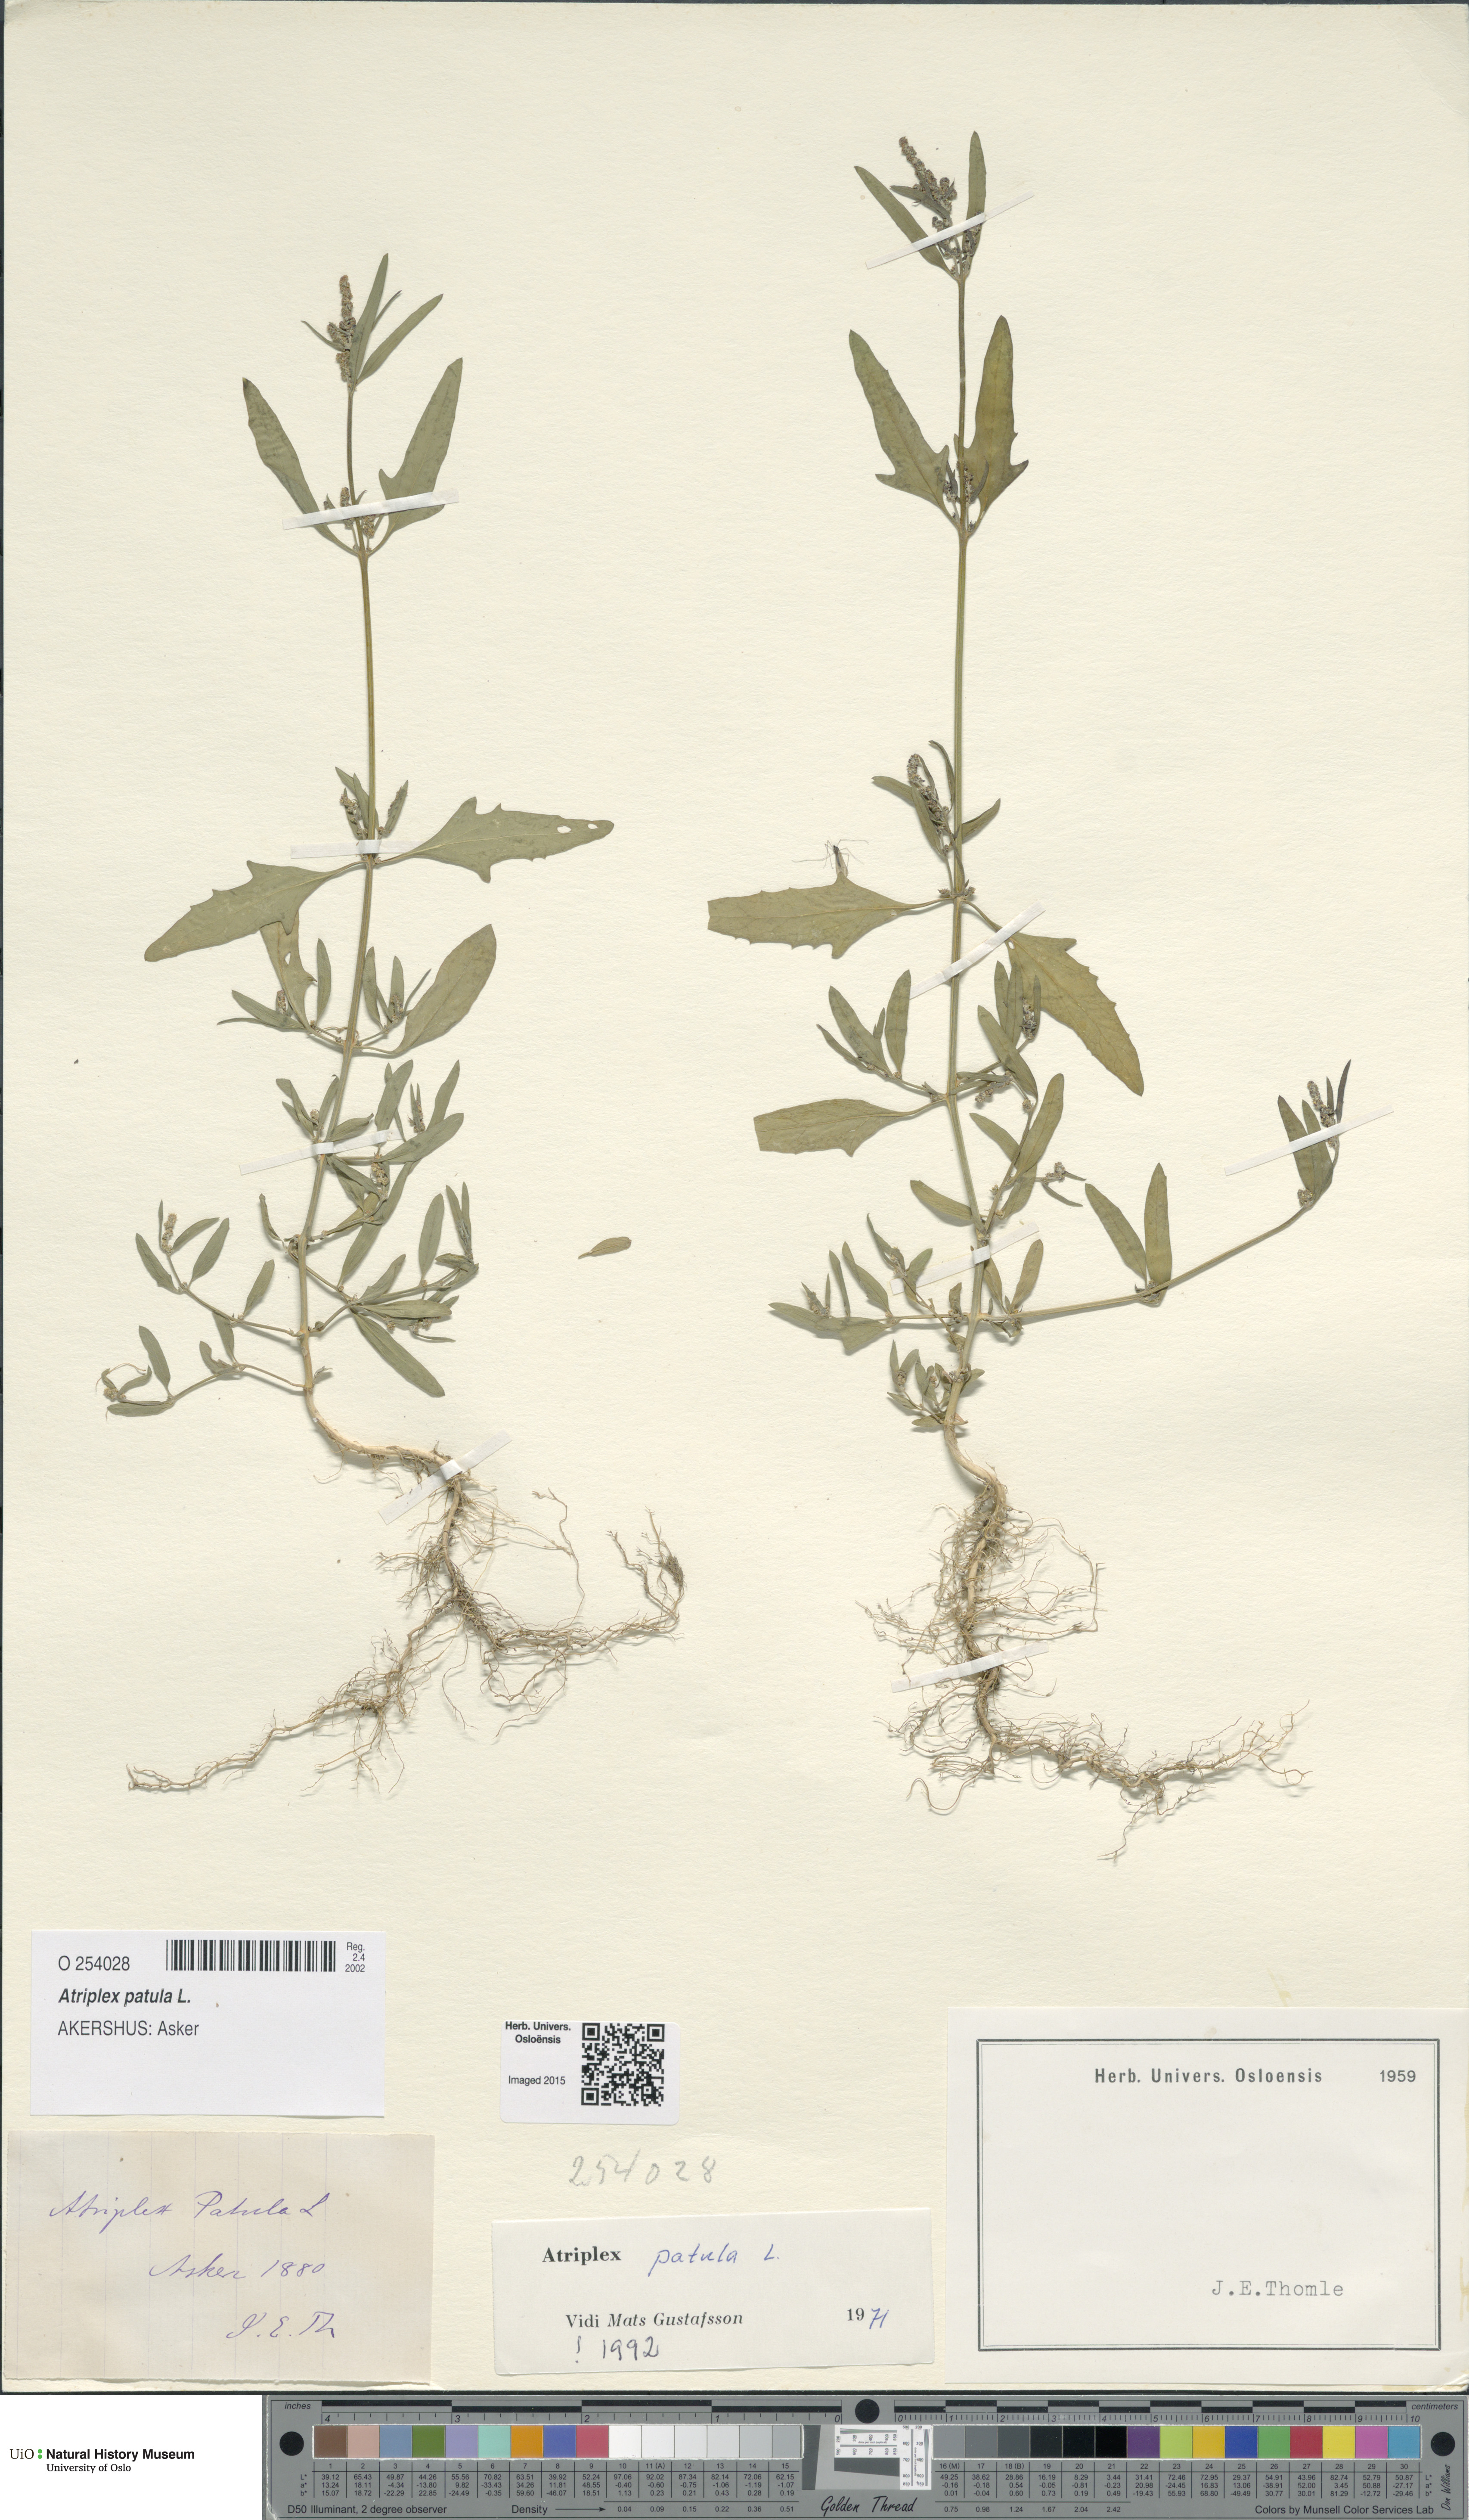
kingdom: Plantae
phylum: Tracheophyta
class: Magnoliopsida
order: Caryophyllales
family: Amaranthaceae
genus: Atriplex
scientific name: Atriplex patula
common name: Common orache
